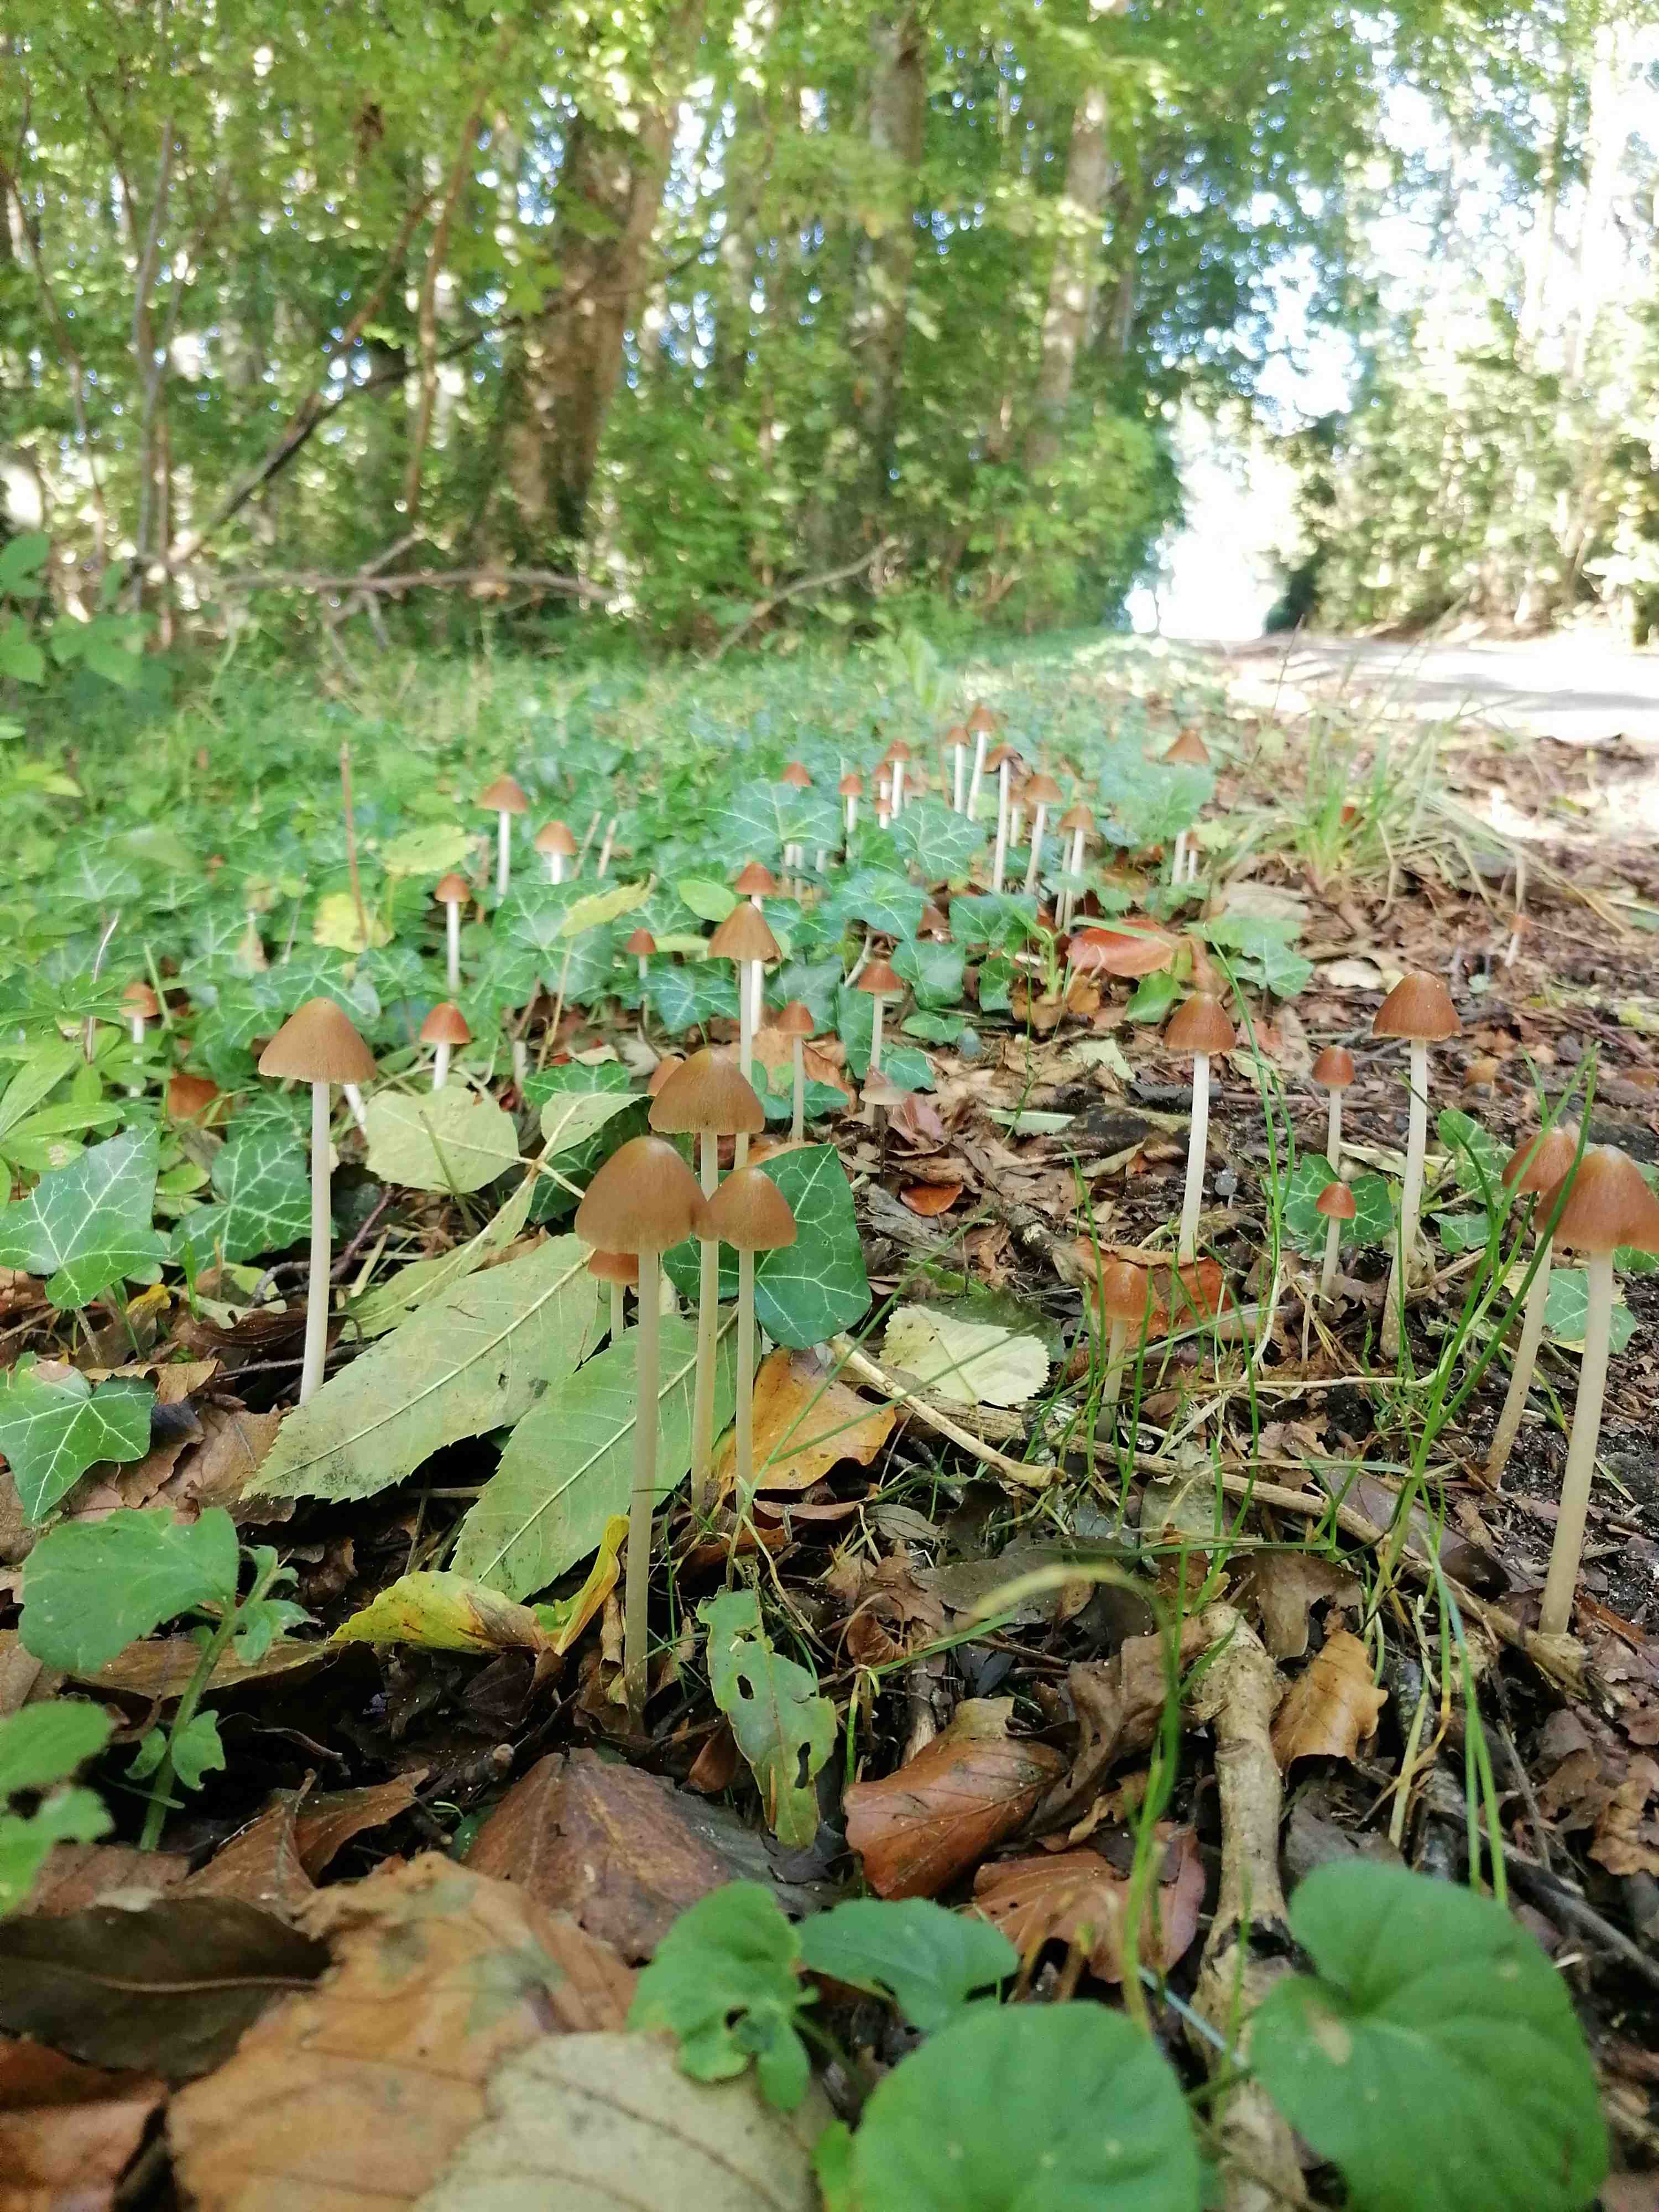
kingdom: Fungi
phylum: Basidiomycota
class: Agaricomycetes
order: Agaricales
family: Psathyrellaceae
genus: Parasola
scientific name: Parasola conopilea
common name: kegle-hjulhat
